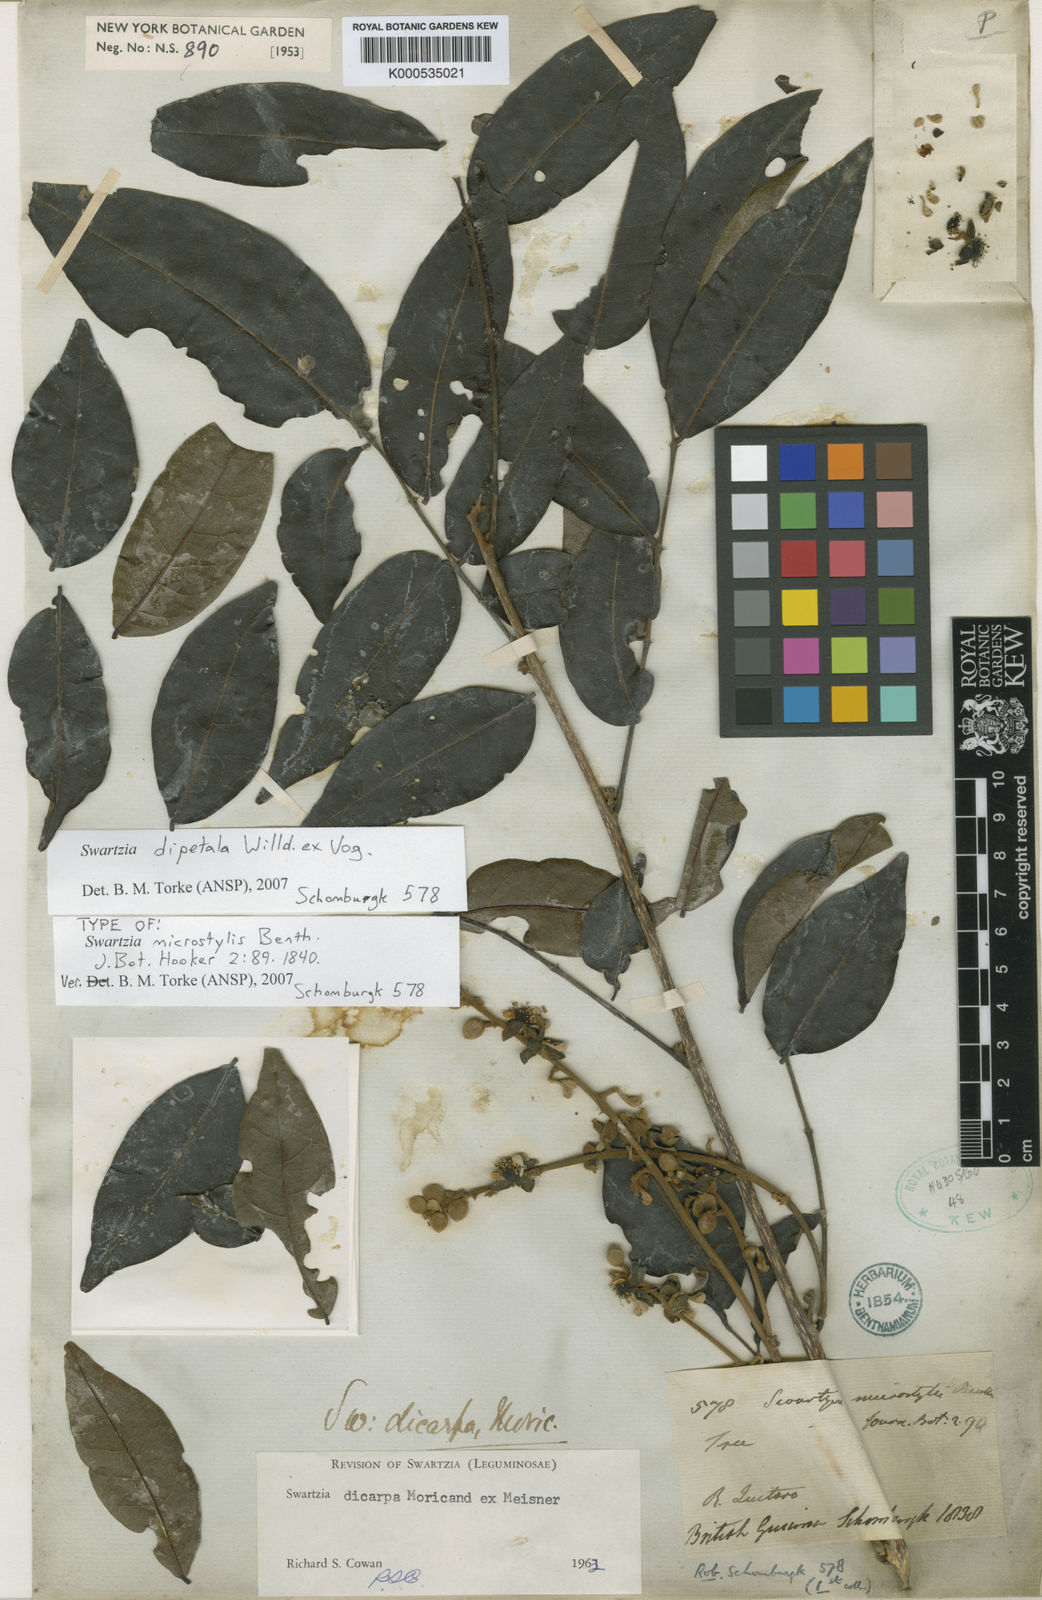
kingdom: Plantae
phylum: Tracheophyta
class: Magnoliopsida
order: Fabales
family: Fabaceae
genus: Swartzia
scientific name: Swartzia dipetala
